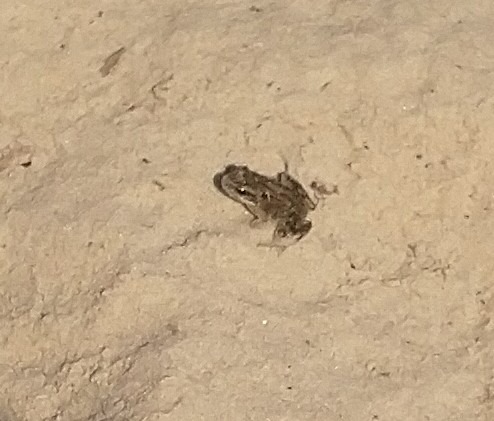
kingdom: Animalia
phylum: Chordata
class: Amphibia
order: Anura
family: Ranidae
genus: Rana
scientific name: Rana temporaria
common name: Butsnudet frø
